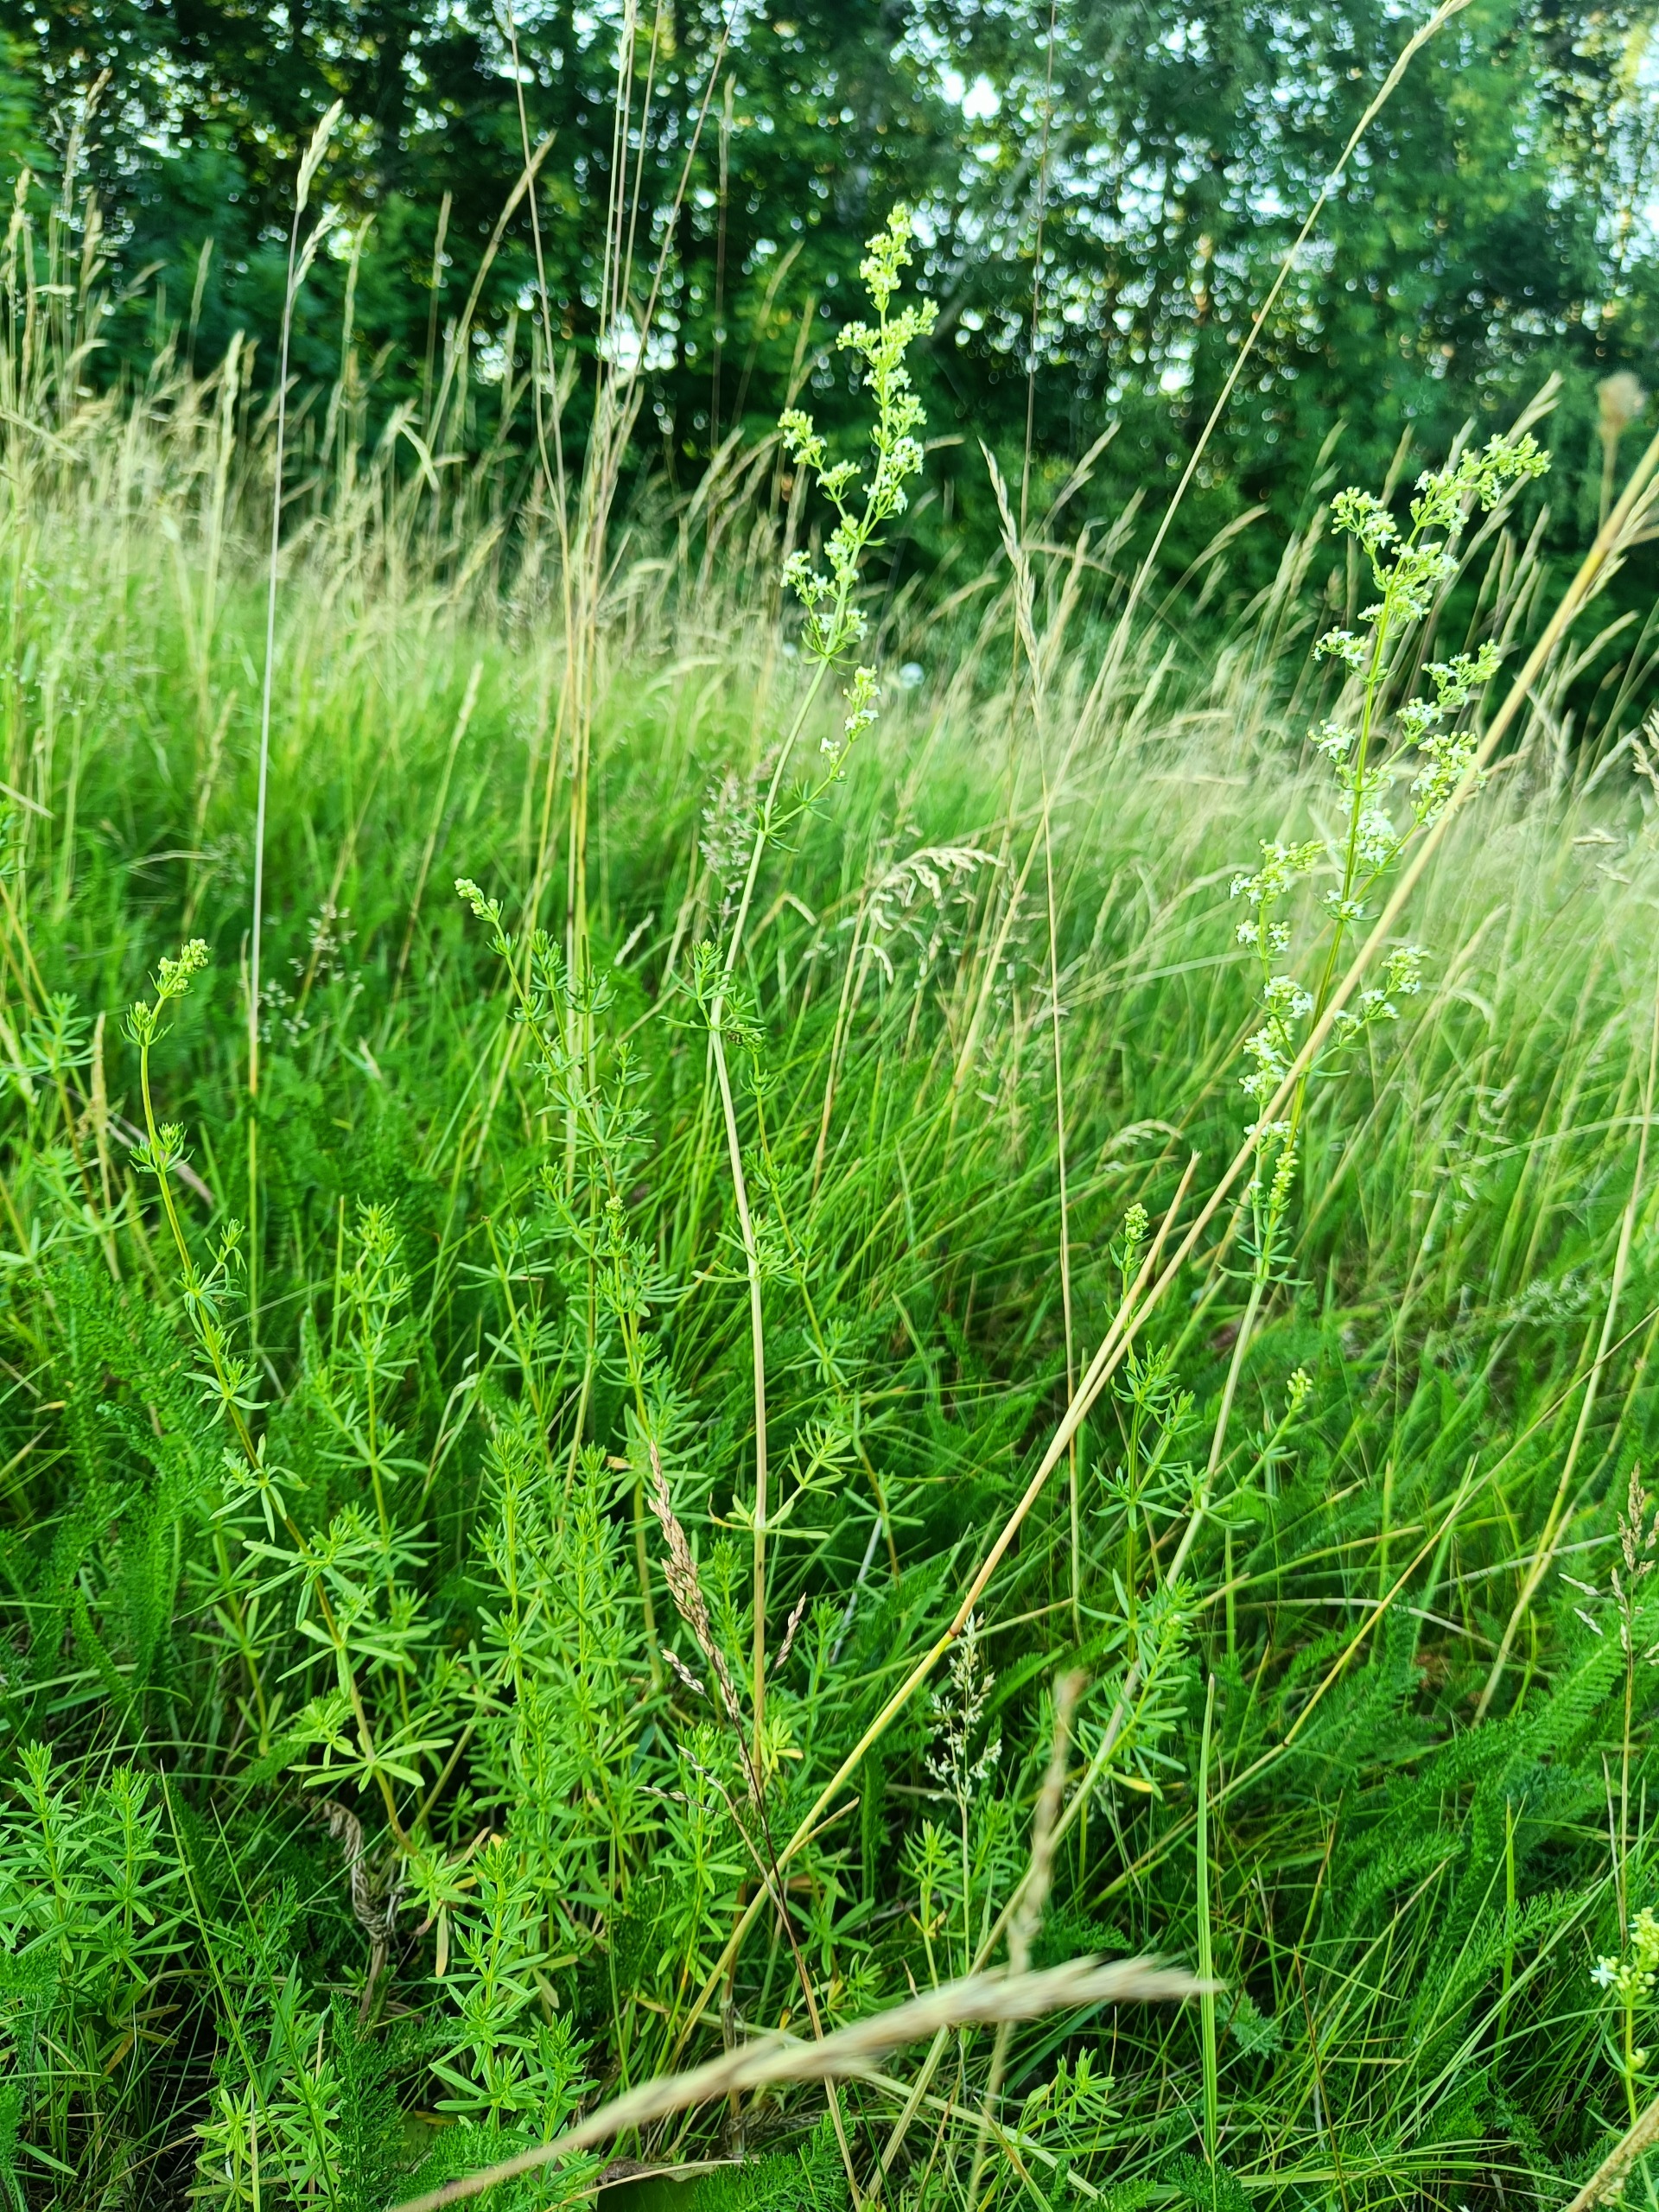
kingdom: Plantae
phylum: Tracheophyta
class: Magnoliopsida
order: Gentianales
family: Rubiaceae
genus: Galium
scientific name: Galium mollugo
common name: Hvid snerre
